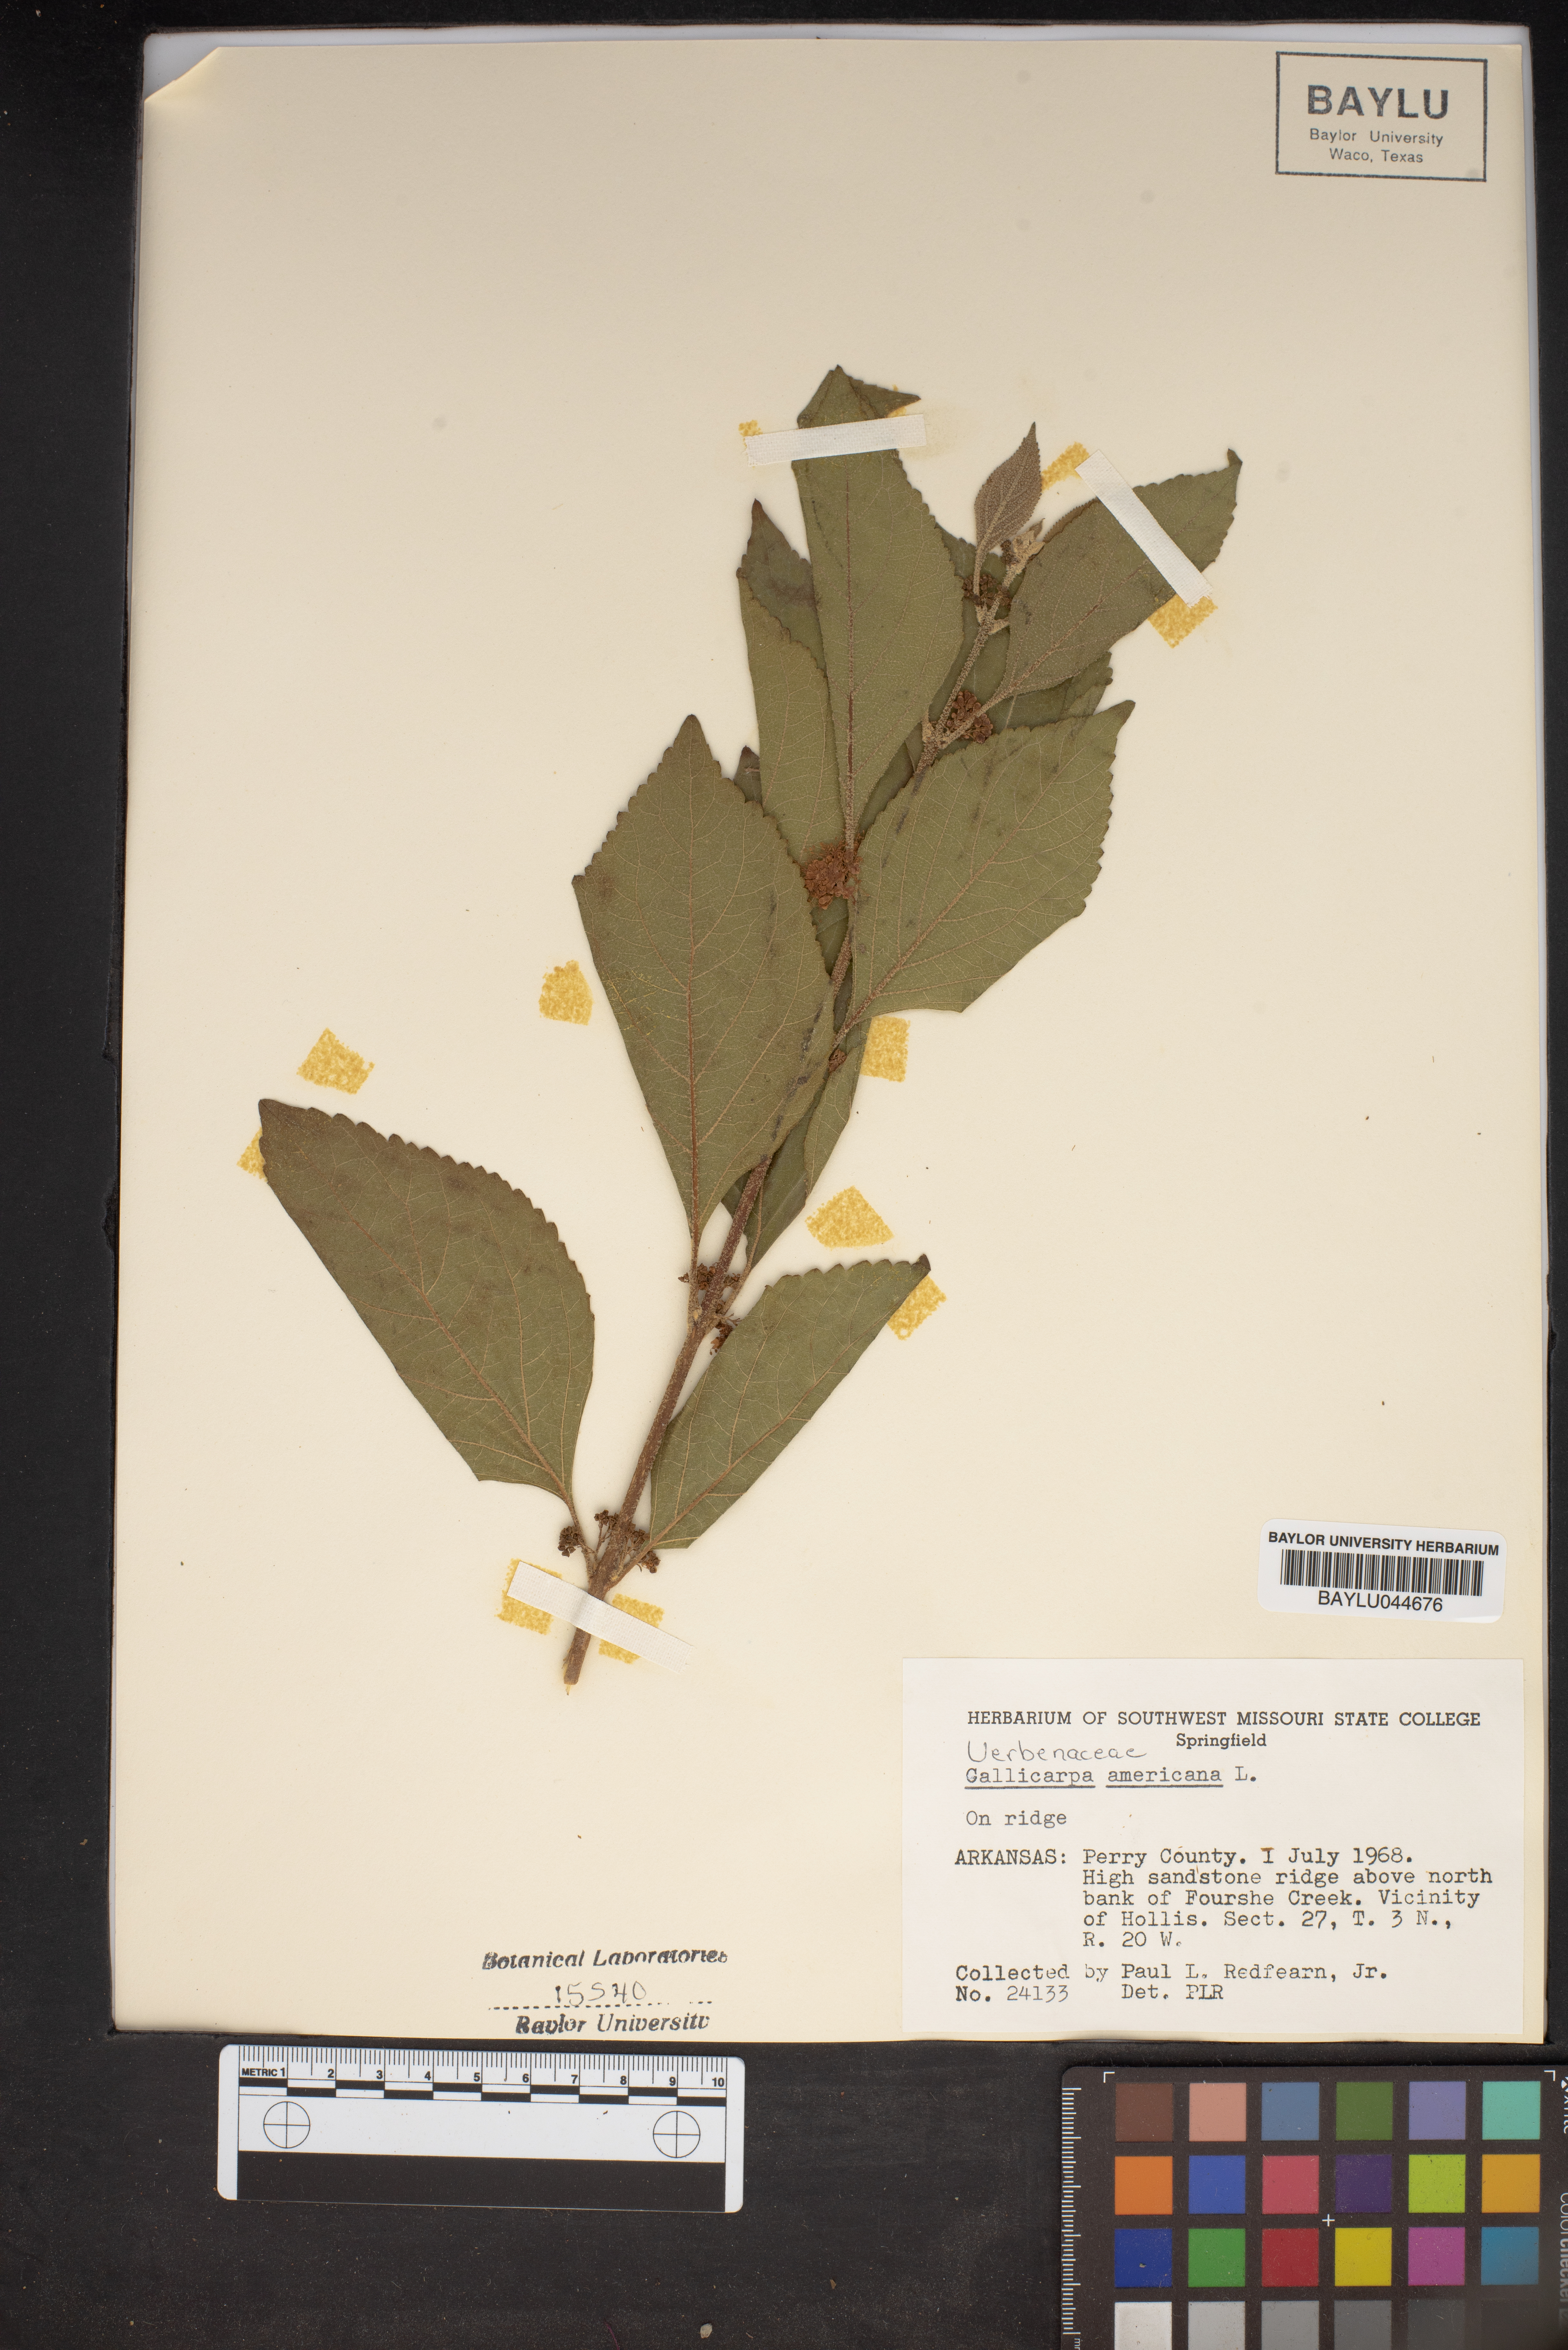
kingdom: Plantae
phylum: Tracheophyta
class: Magnoliopsida
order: Lamiales
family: Lamiaceae
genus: Callicarpa
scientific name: Callicarpa americana
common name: American beautyberry
